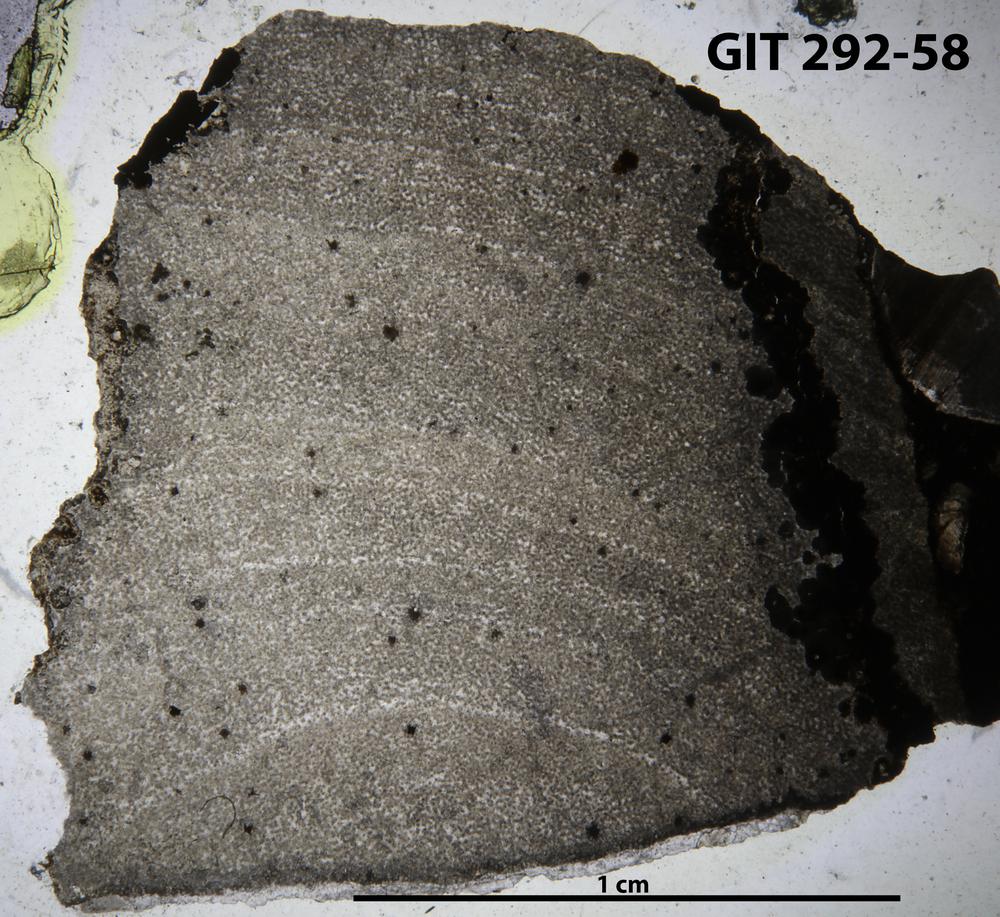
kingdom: Animalia
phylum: Porifera
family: Ecclimadictyidae
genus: Ecclimadictyon
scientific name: Ecclimadictyon Clathrodictyon microvesiculosum
